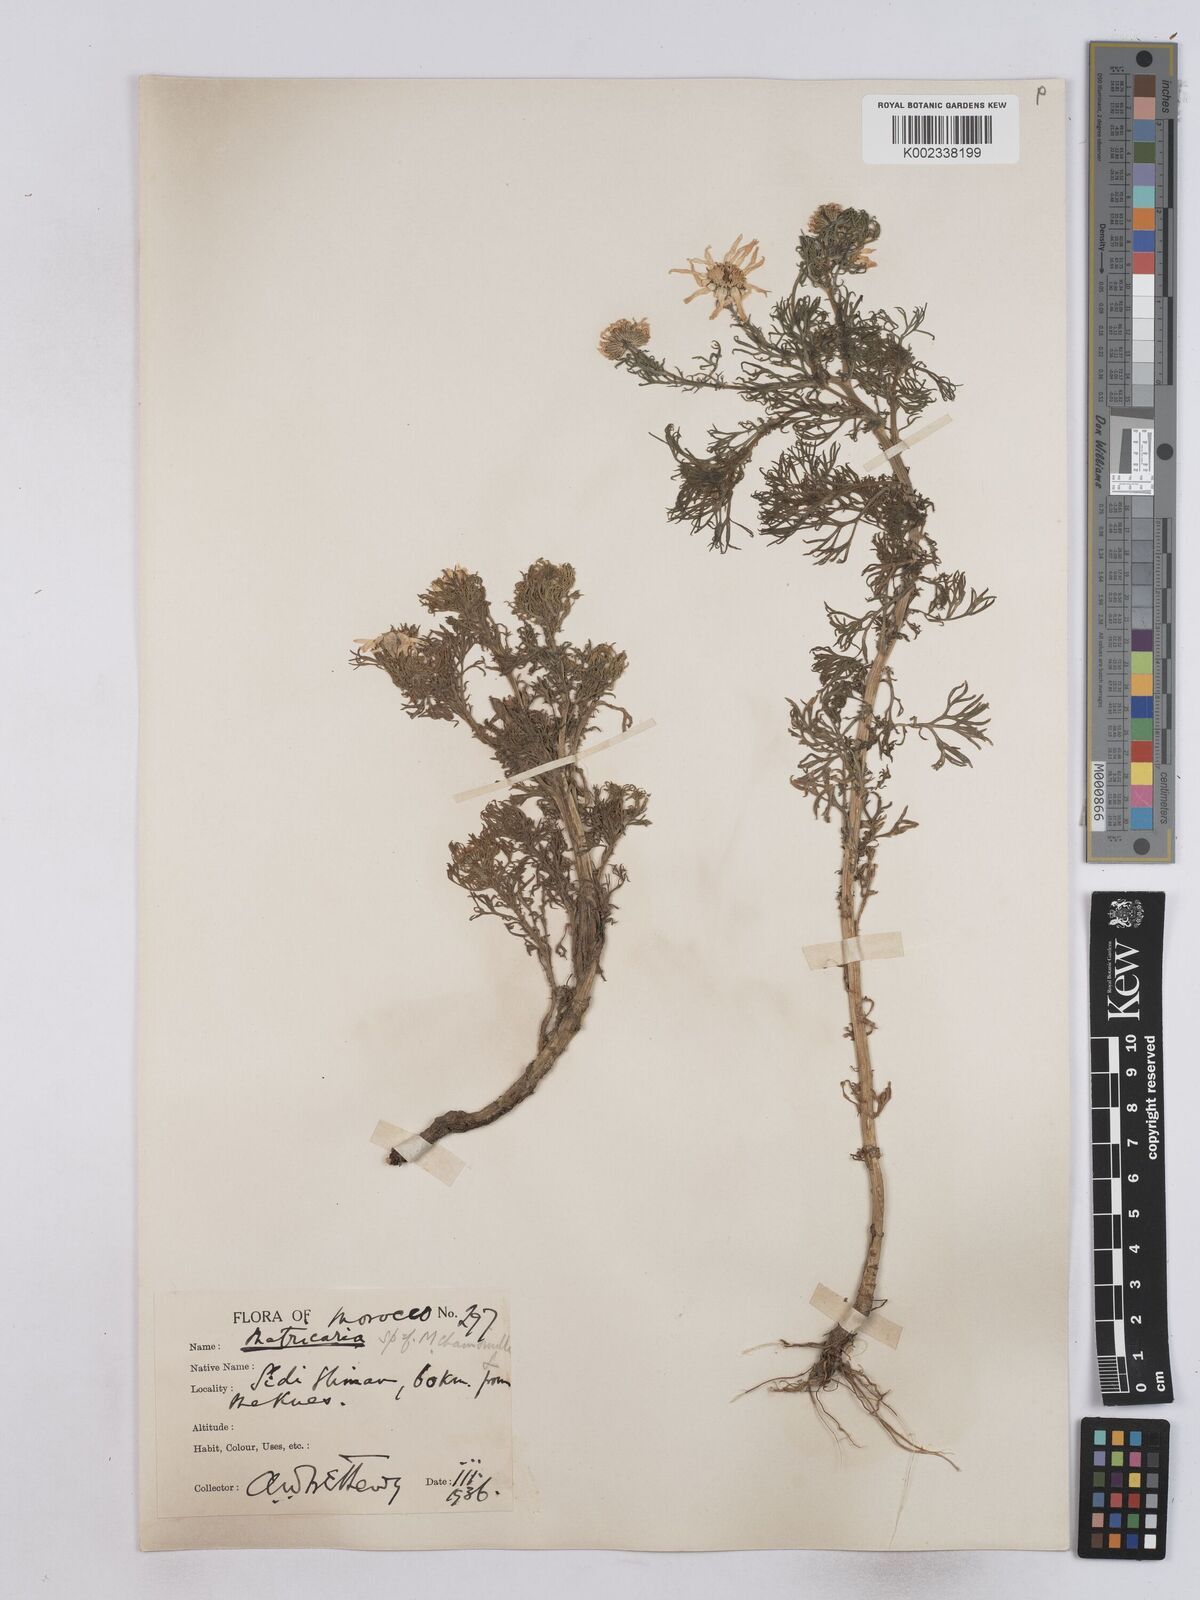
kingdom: Plantae
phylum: Tracheophyta
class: Magnoliopsida
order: Asterales
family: Asteraceae
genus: Matricaria
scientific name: Matricaria chamomilla
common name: Scented mayweed
